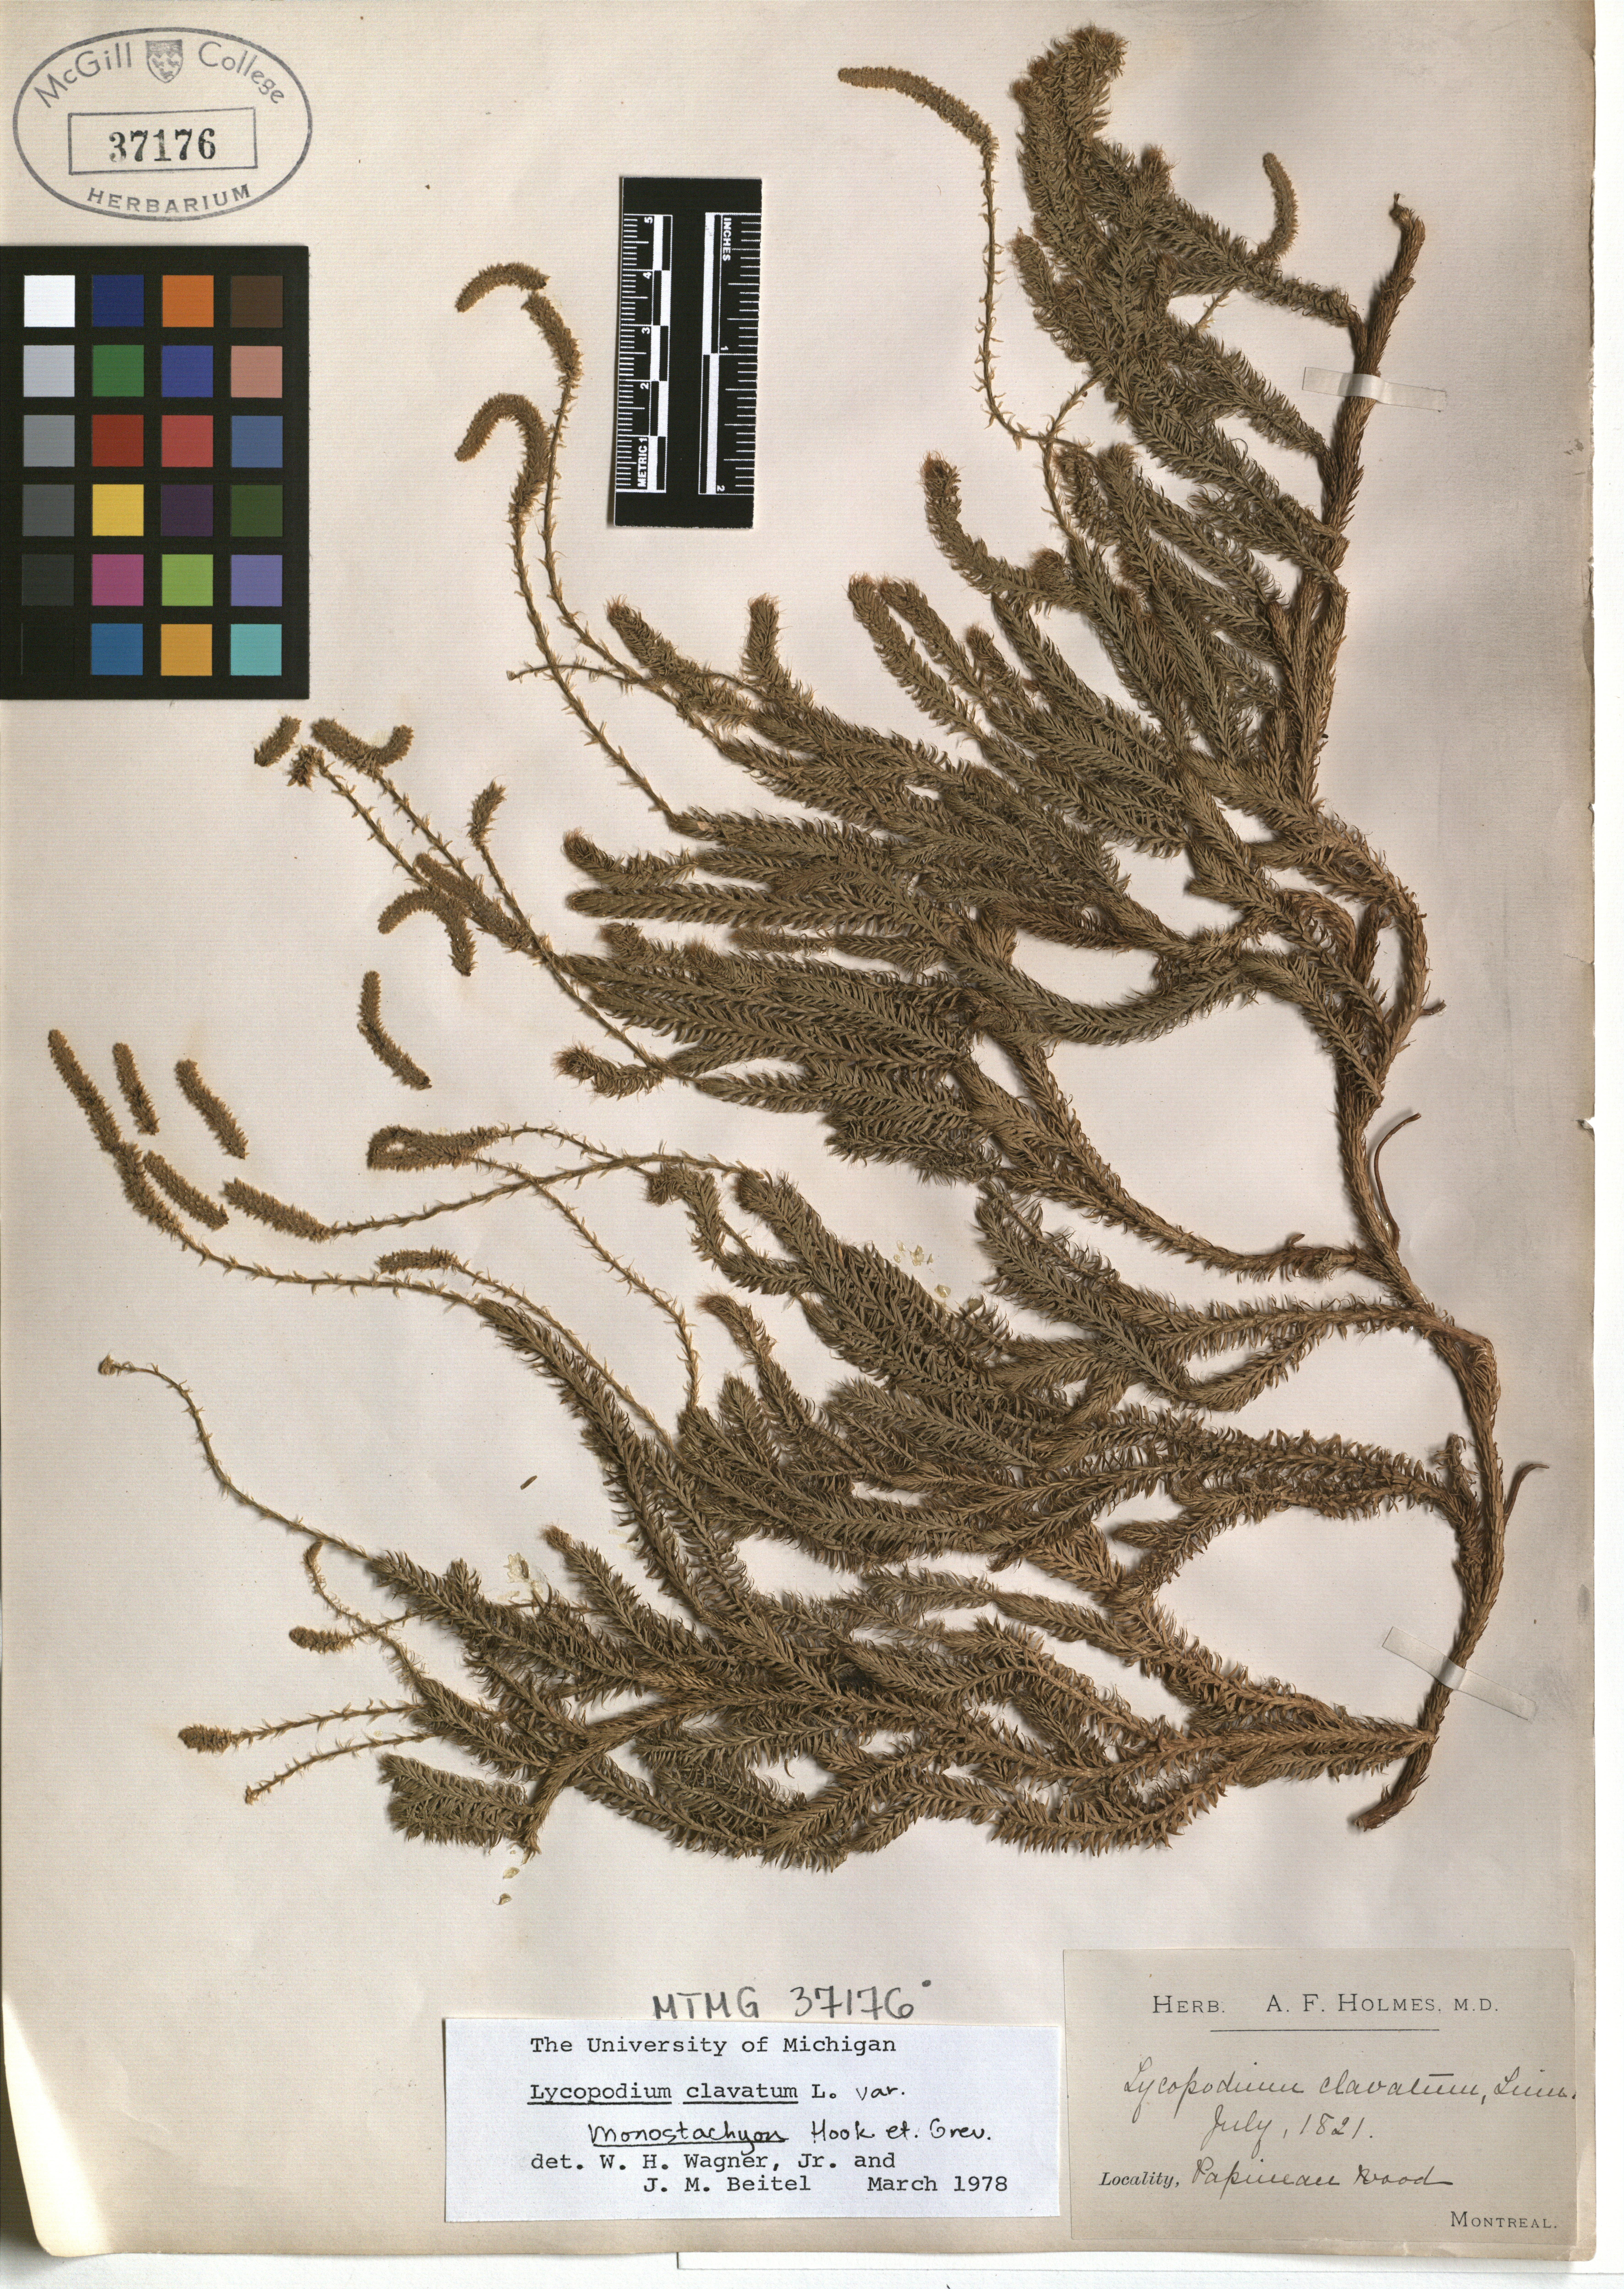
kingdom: Plantae
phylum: Tracheophyta
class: Lycopodiopsida
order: Lycopodiales
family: Lycopodiaceae
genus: Lycopodium
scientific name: Lycopodium clavatum
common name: Stag's-horn clubmoss
